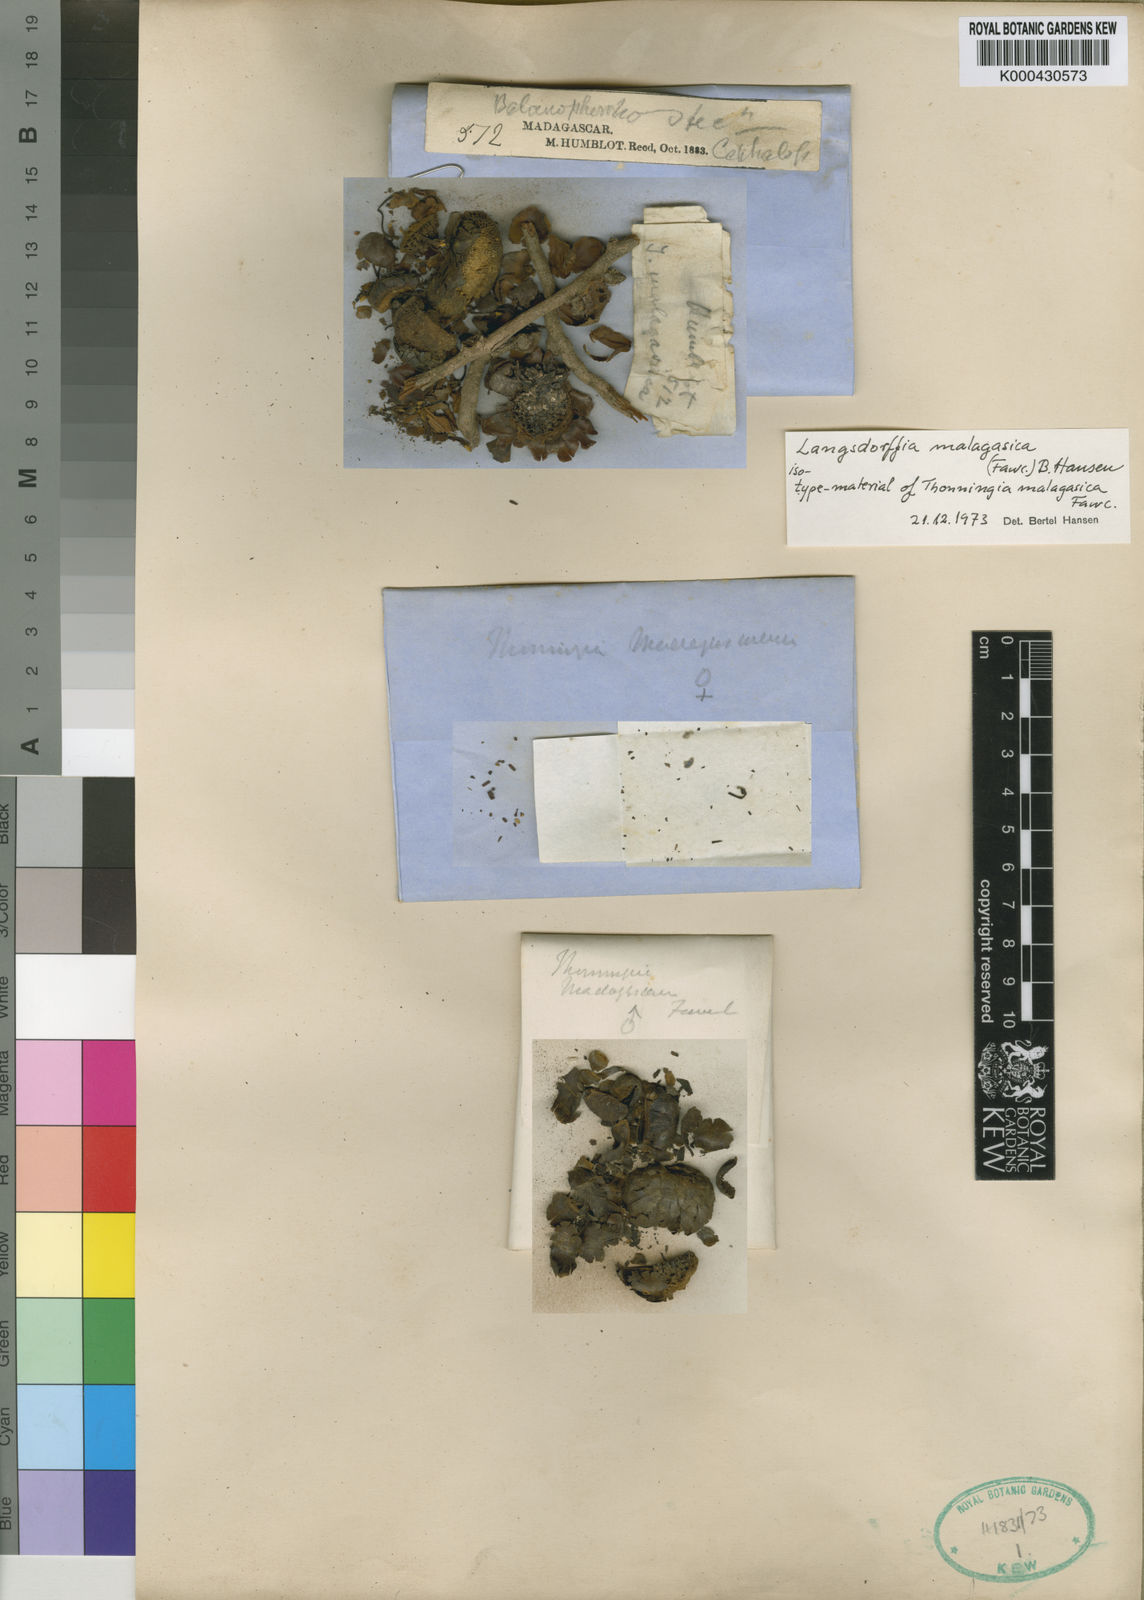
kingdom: Plantae
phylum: Tracheophyta
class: Magnoliopsida
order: Santalales
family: Balanophoraceae
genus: Langsdorffia
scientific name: Langsdorffia malagasica
